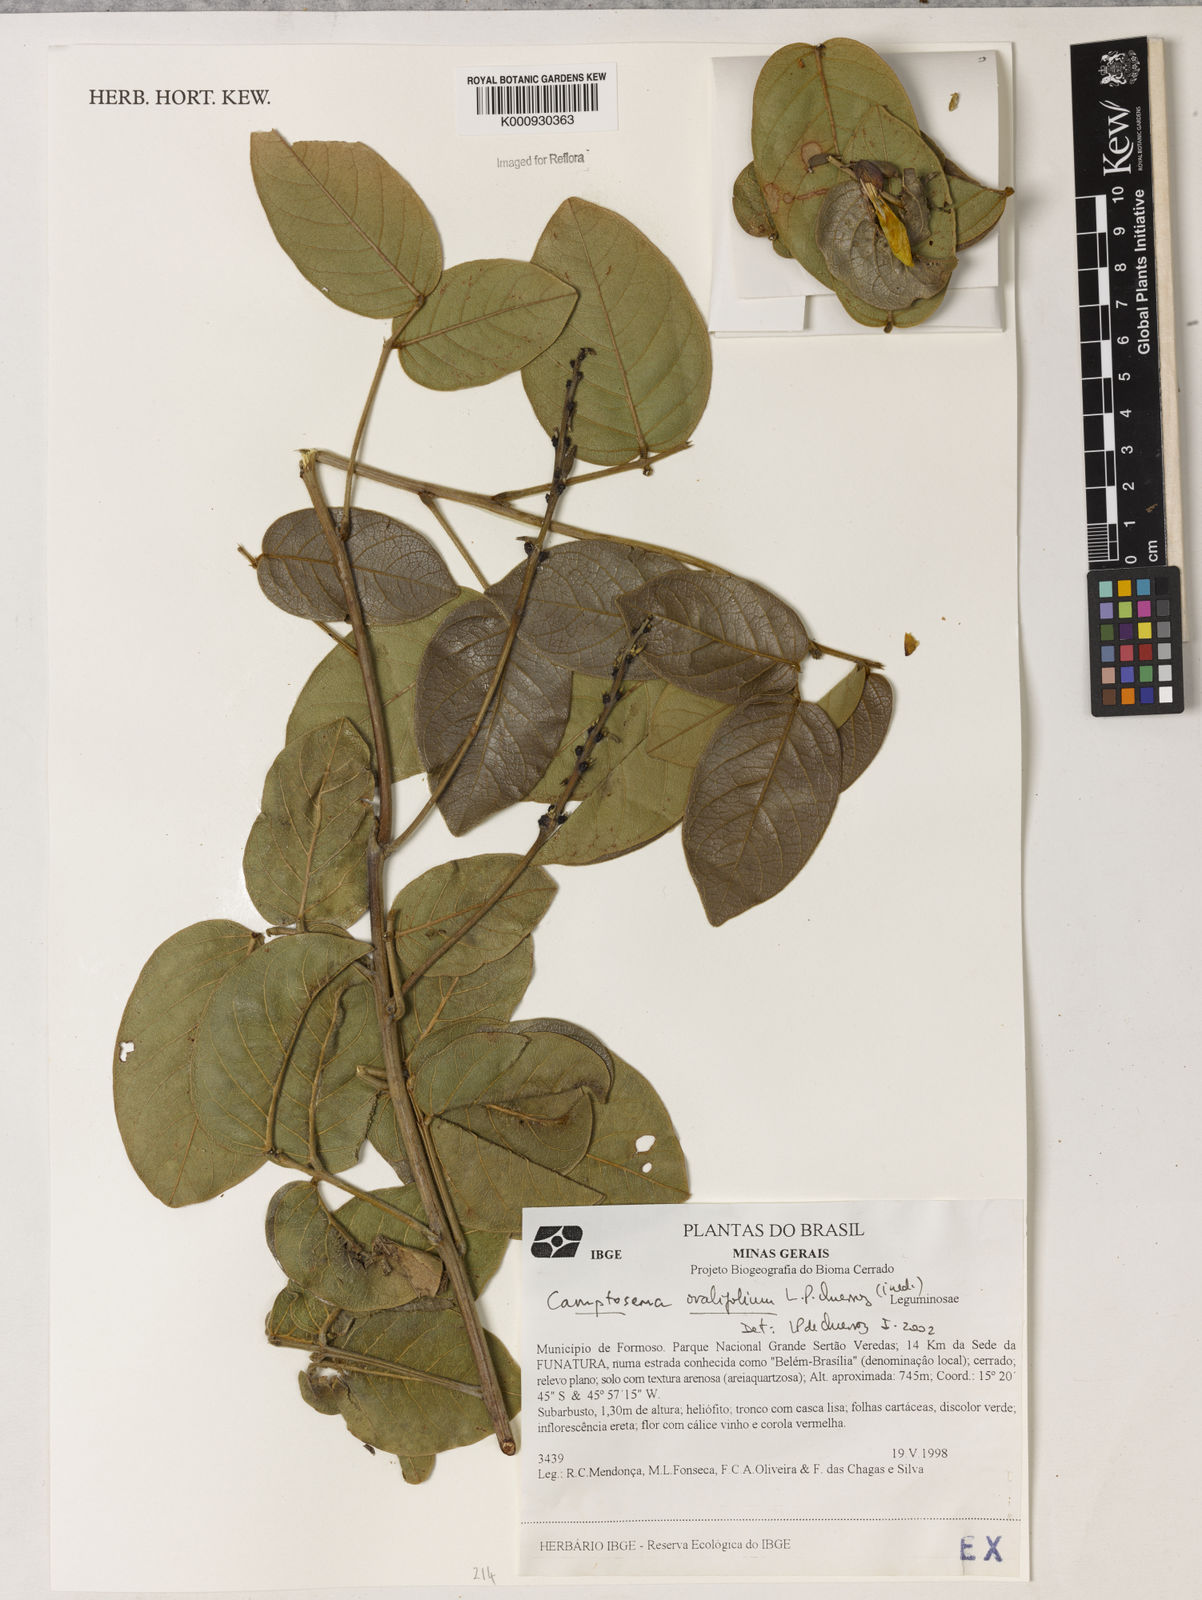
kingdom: Plantae
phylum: Tracheophyta
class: Magnoliopsida
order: Fabales
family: Fabaceae
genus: Camptosema
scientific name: Camptosema
